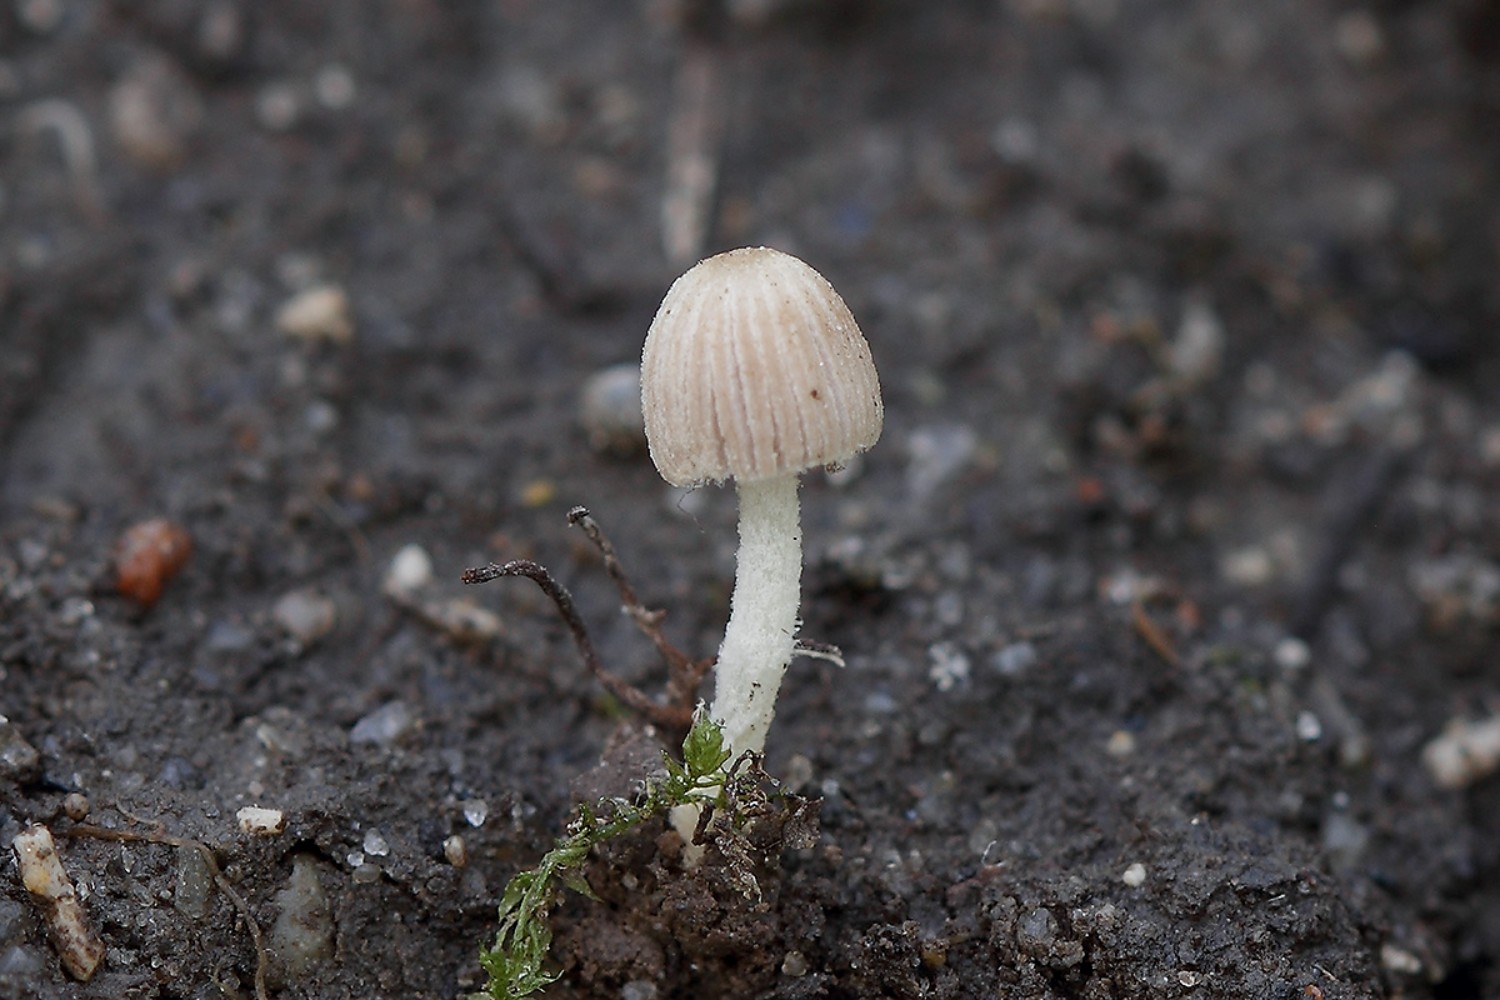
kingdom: Fungi
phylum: Basidiomycota
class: Agaricomycetes
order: Agaricales
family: Psathyrellaceae
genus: Coprinopsis
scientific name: Coprinopsis candidata
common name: hvidklædt blækhat
